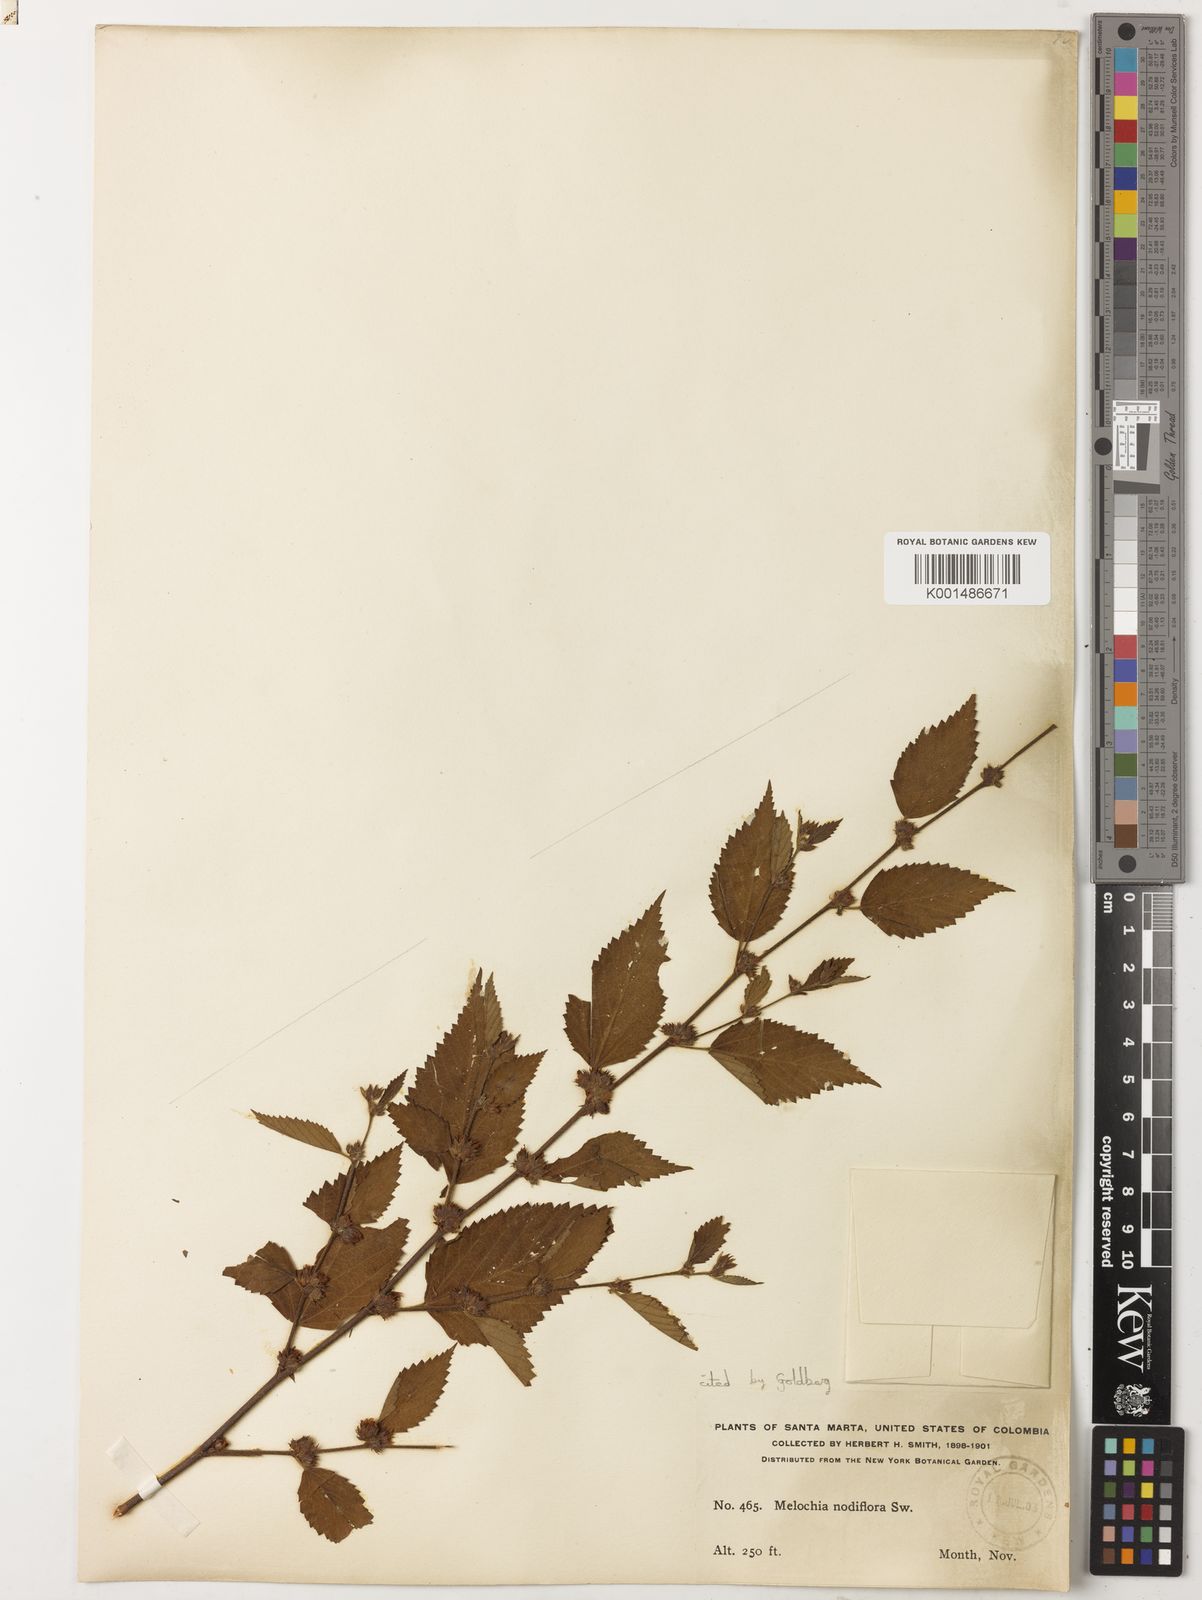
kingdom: Plantae
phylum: Tracheophyta
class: Magnoliopsida
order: Malvales
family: Malvaceae
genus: Melochia
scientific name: Melochia nodiflora
